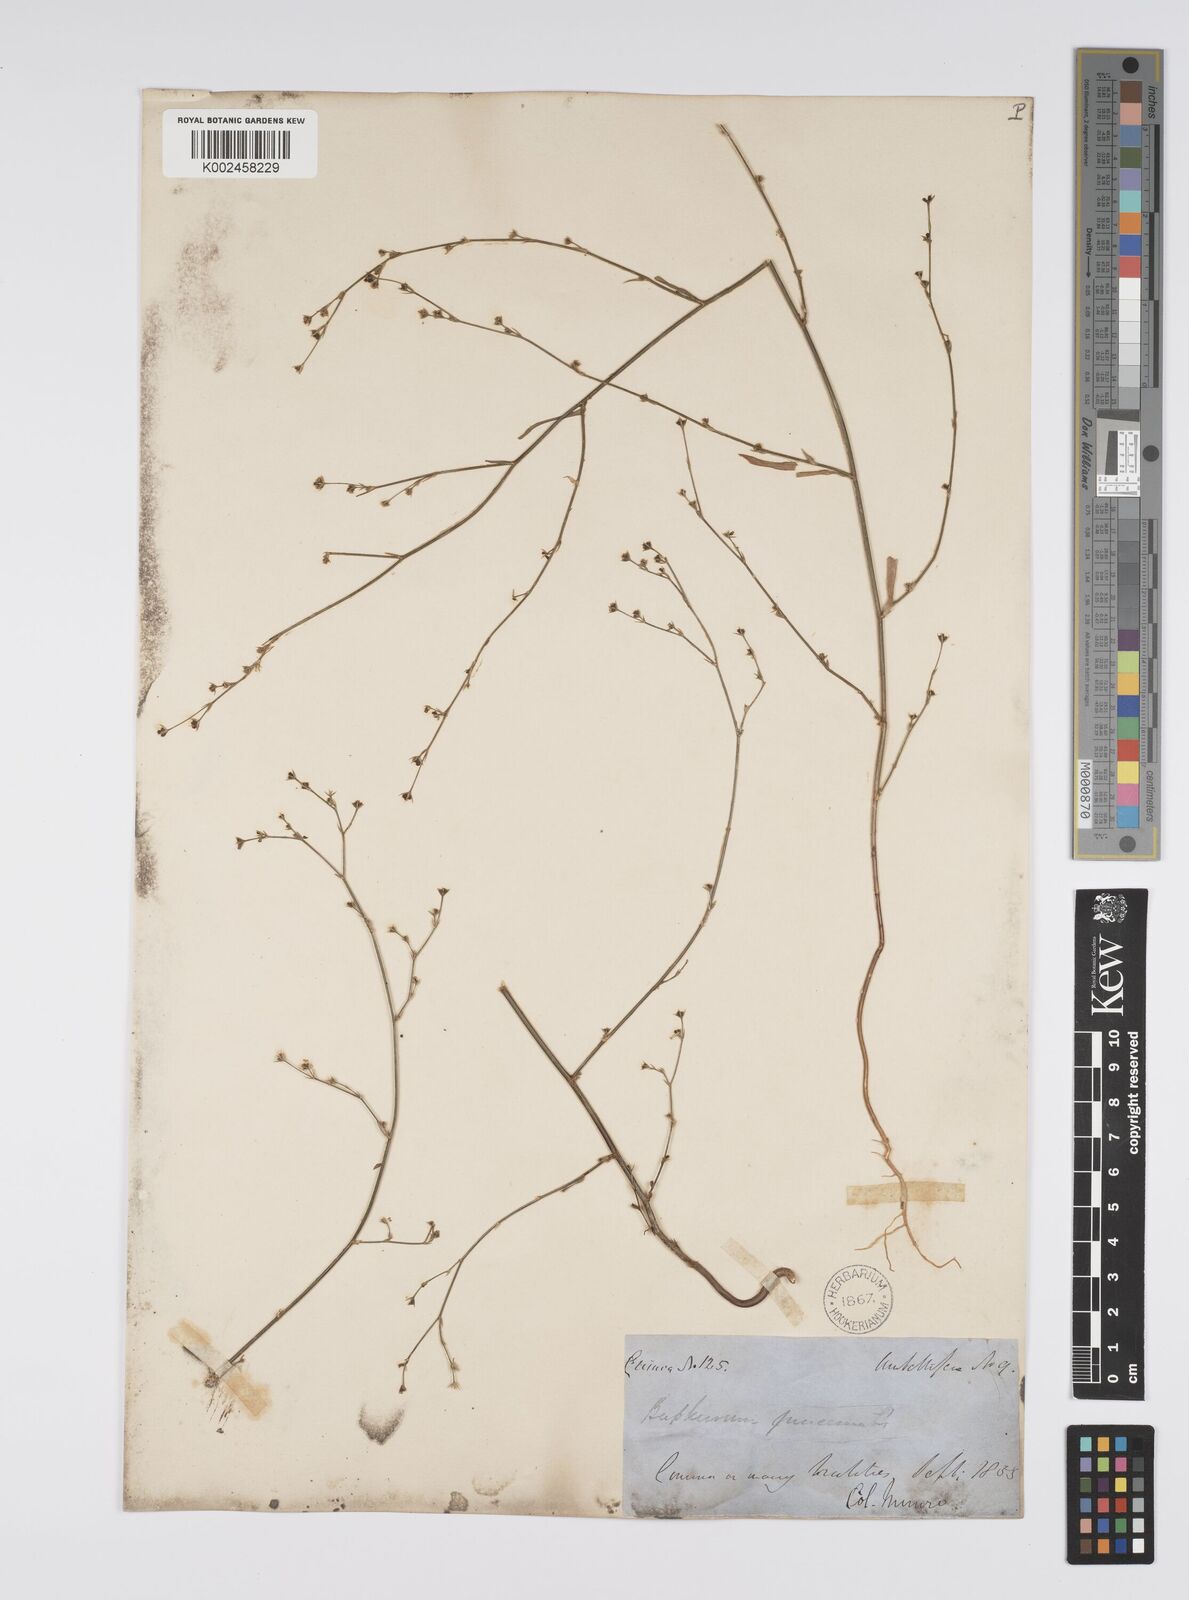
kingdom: Plantae
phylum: Tracheophyta
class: Magnoliopsida
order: Apiales
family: Apiaceae
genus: Bupleurum
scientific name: Bupleurum praealtum
